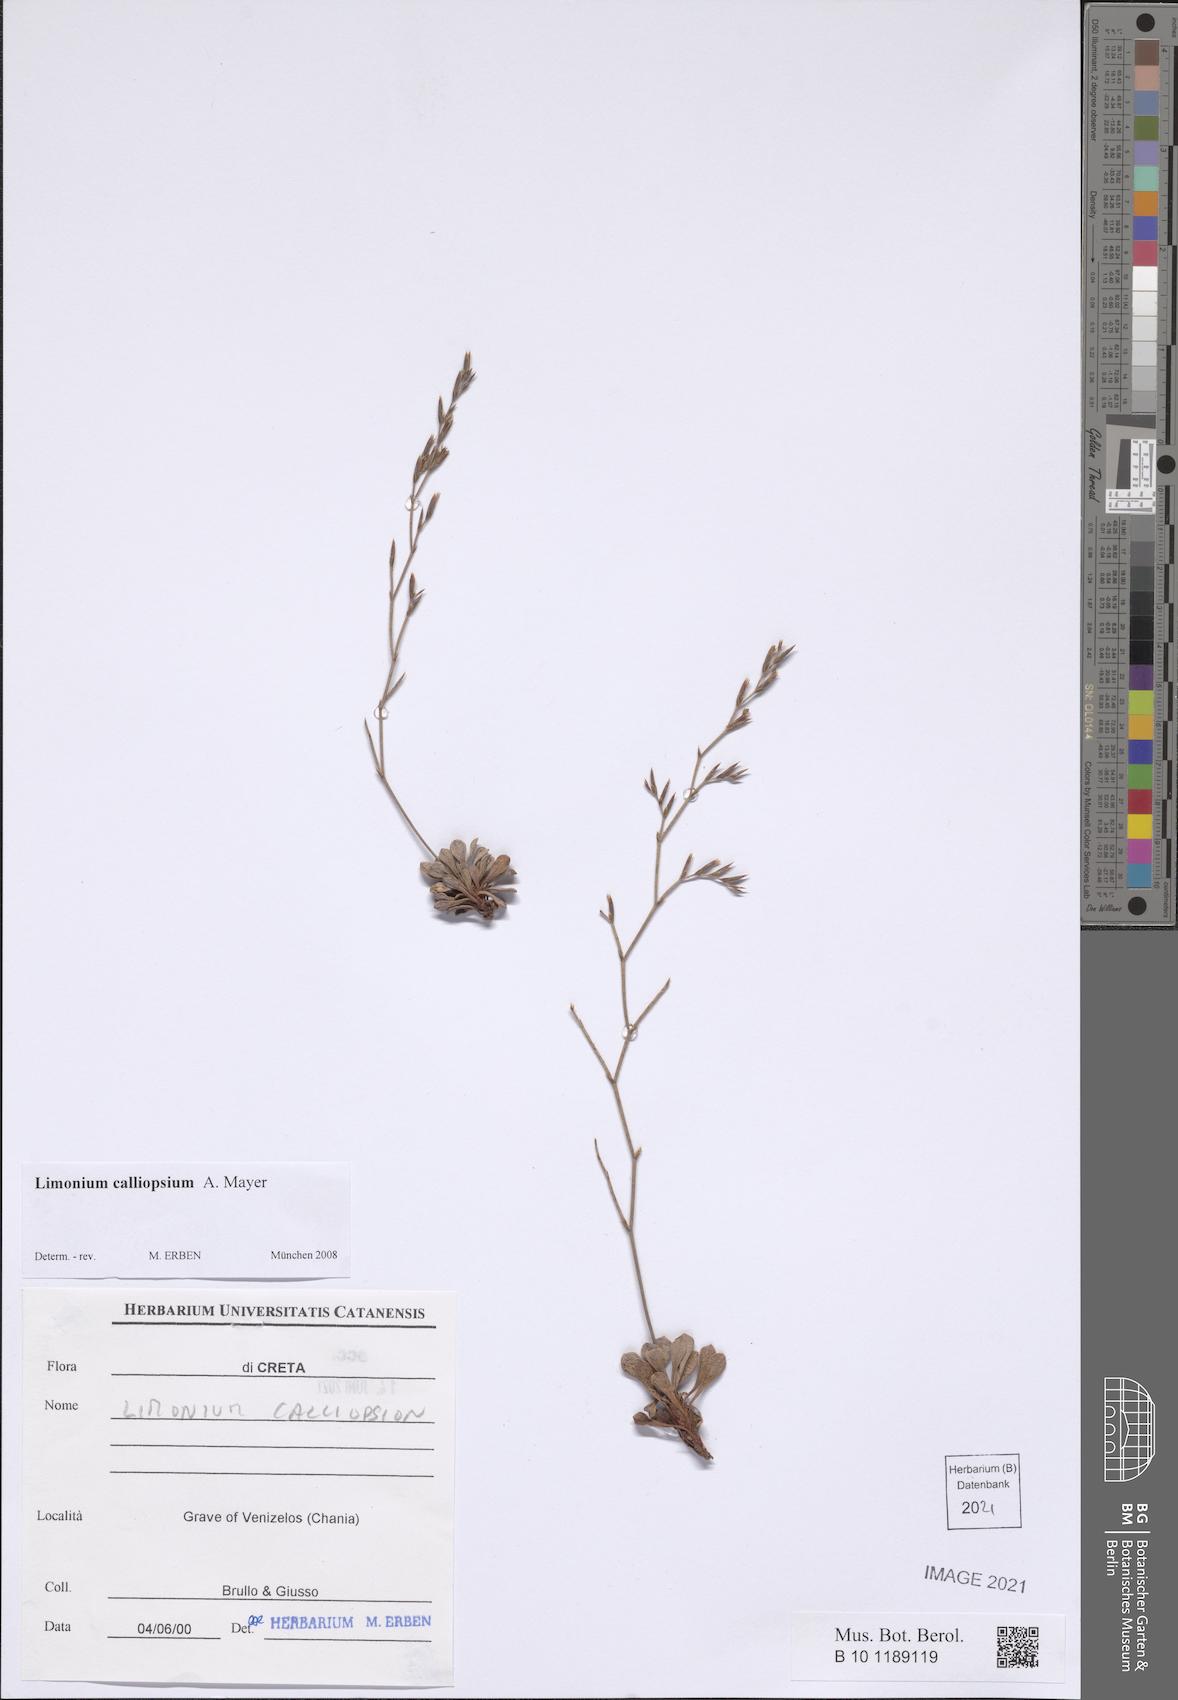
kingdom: Plantae
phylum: Tracheophyta
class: Magnoliopsida
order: Caryophyllales
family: Plumbaginaceae
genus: Limonium
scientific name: Limonium calliopsium
